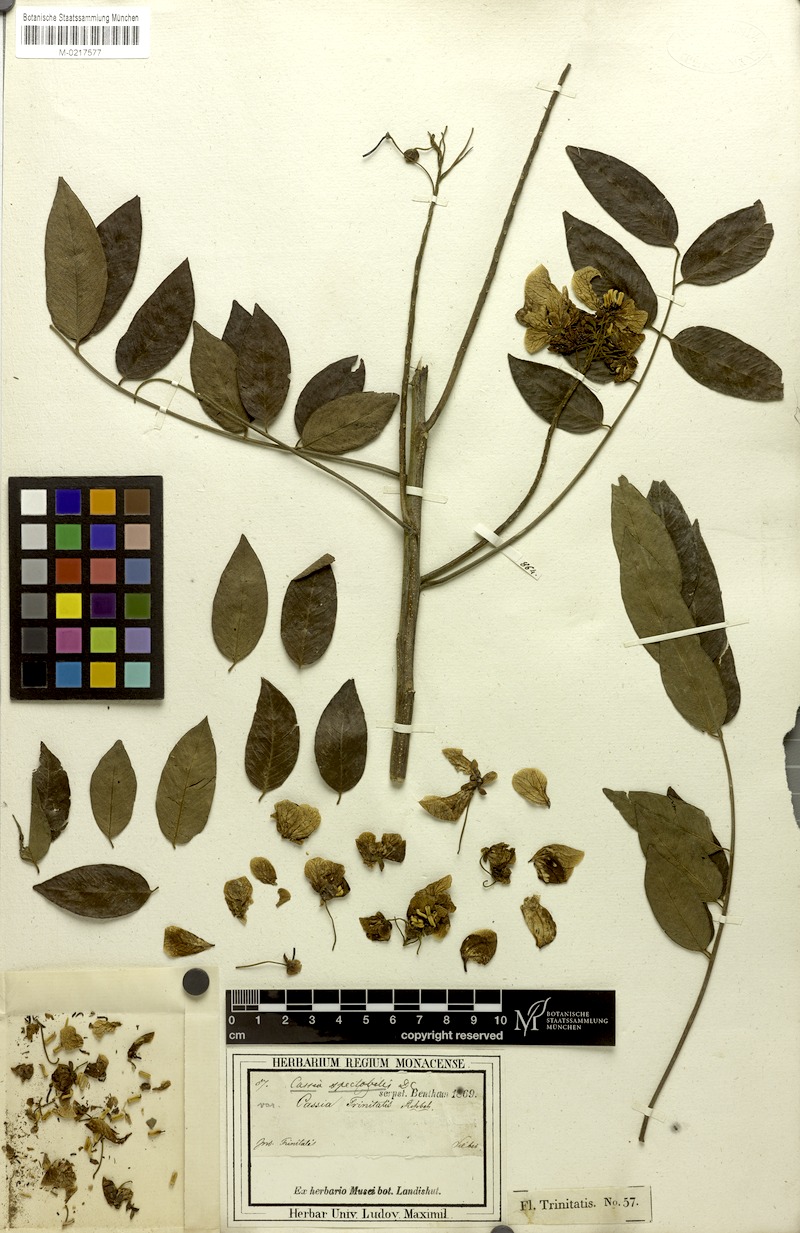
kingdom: Plantae
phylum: Tracheophyta
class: Magnoliopsida
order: Fabales
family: Fabaceae
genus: Senna
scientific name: Senna spectabilis
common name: Casia amarilla
